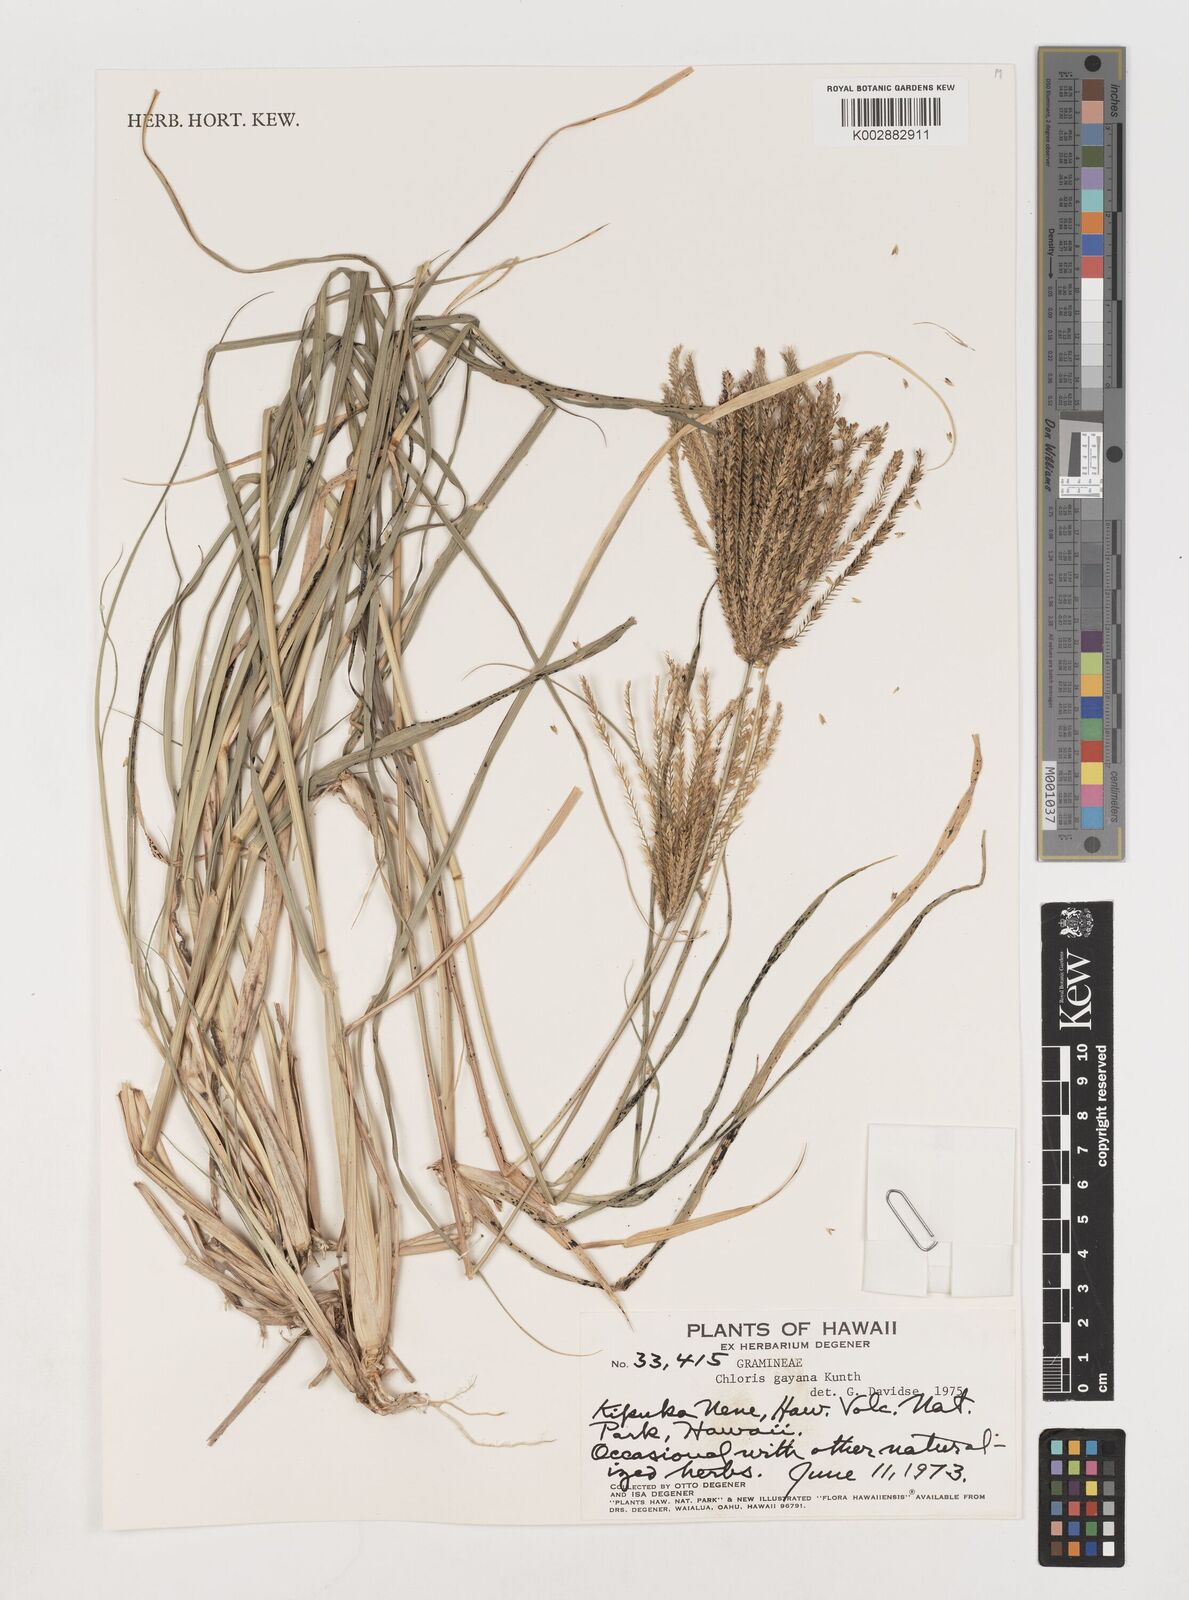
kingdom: Plantae
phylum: Tracheophyta
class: Liliopsida
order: Poales
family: Poaceae
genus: Chloris
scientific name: Chloris gayana
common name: Rhodes grass
